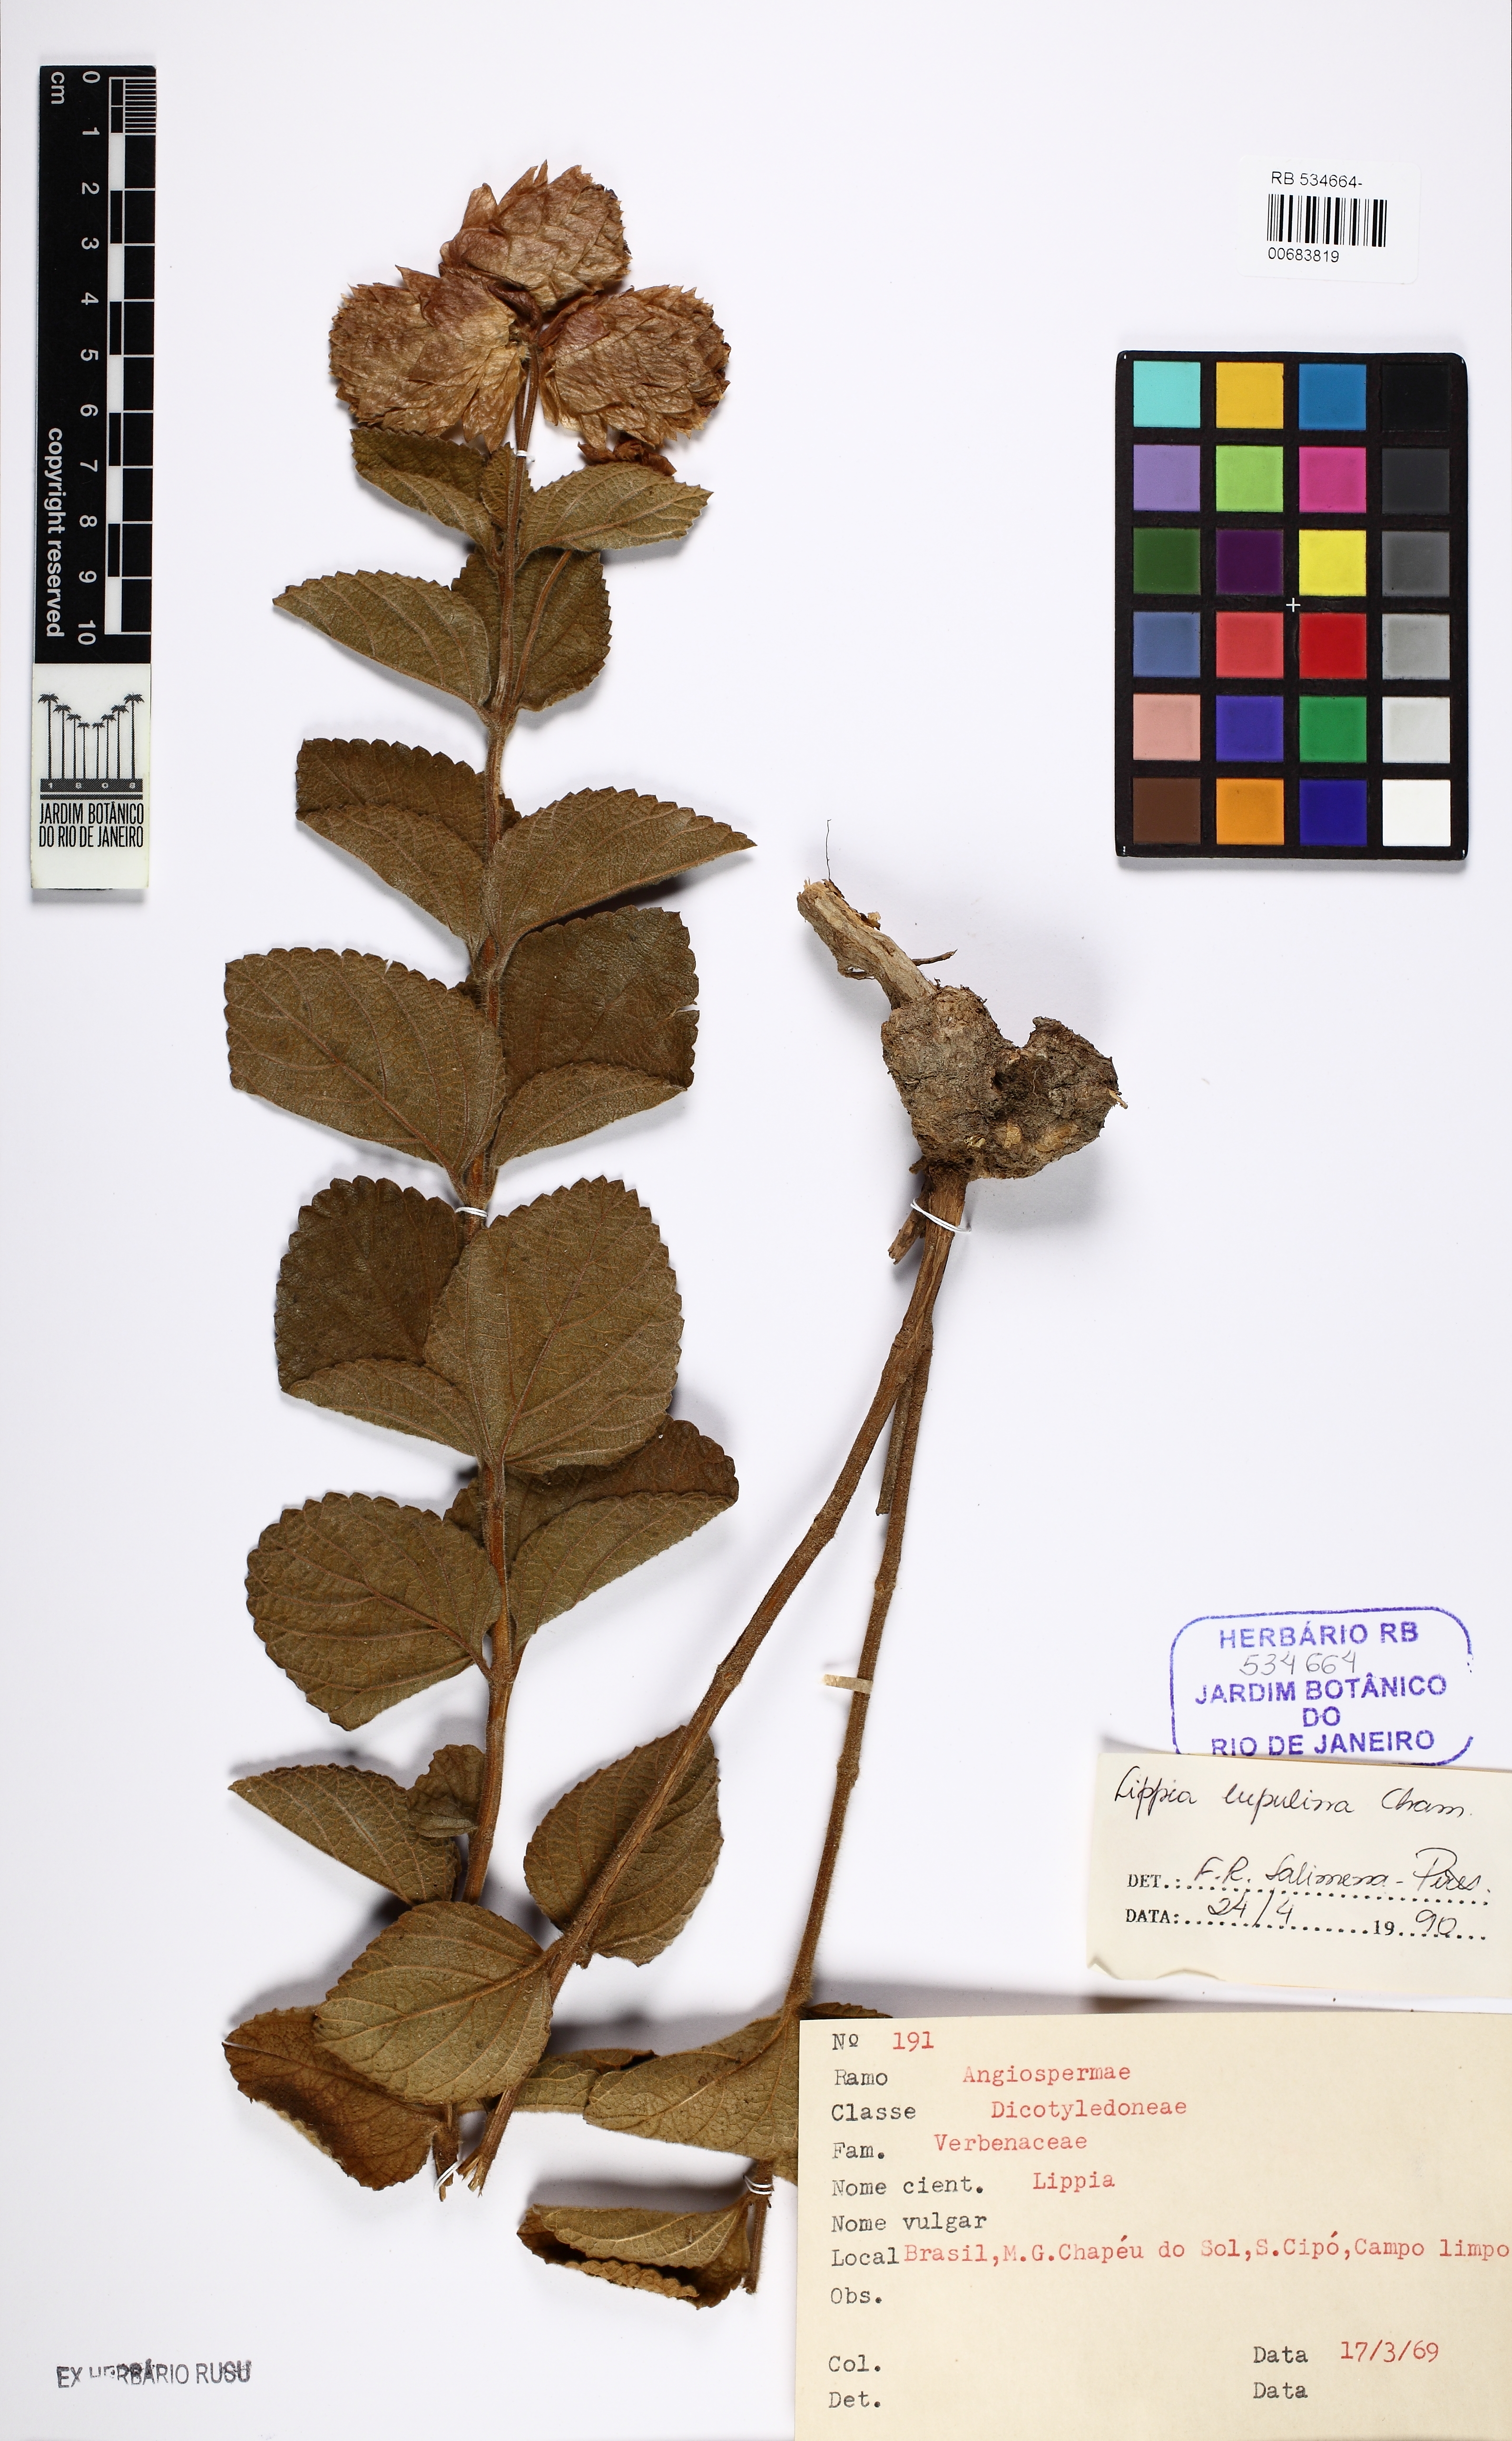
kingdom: Plantae
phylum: Tracheophyta
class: Magnoliopsida
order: Lamiales
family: Verbenaceae
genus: Lippia
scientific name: Lippia lupulina
